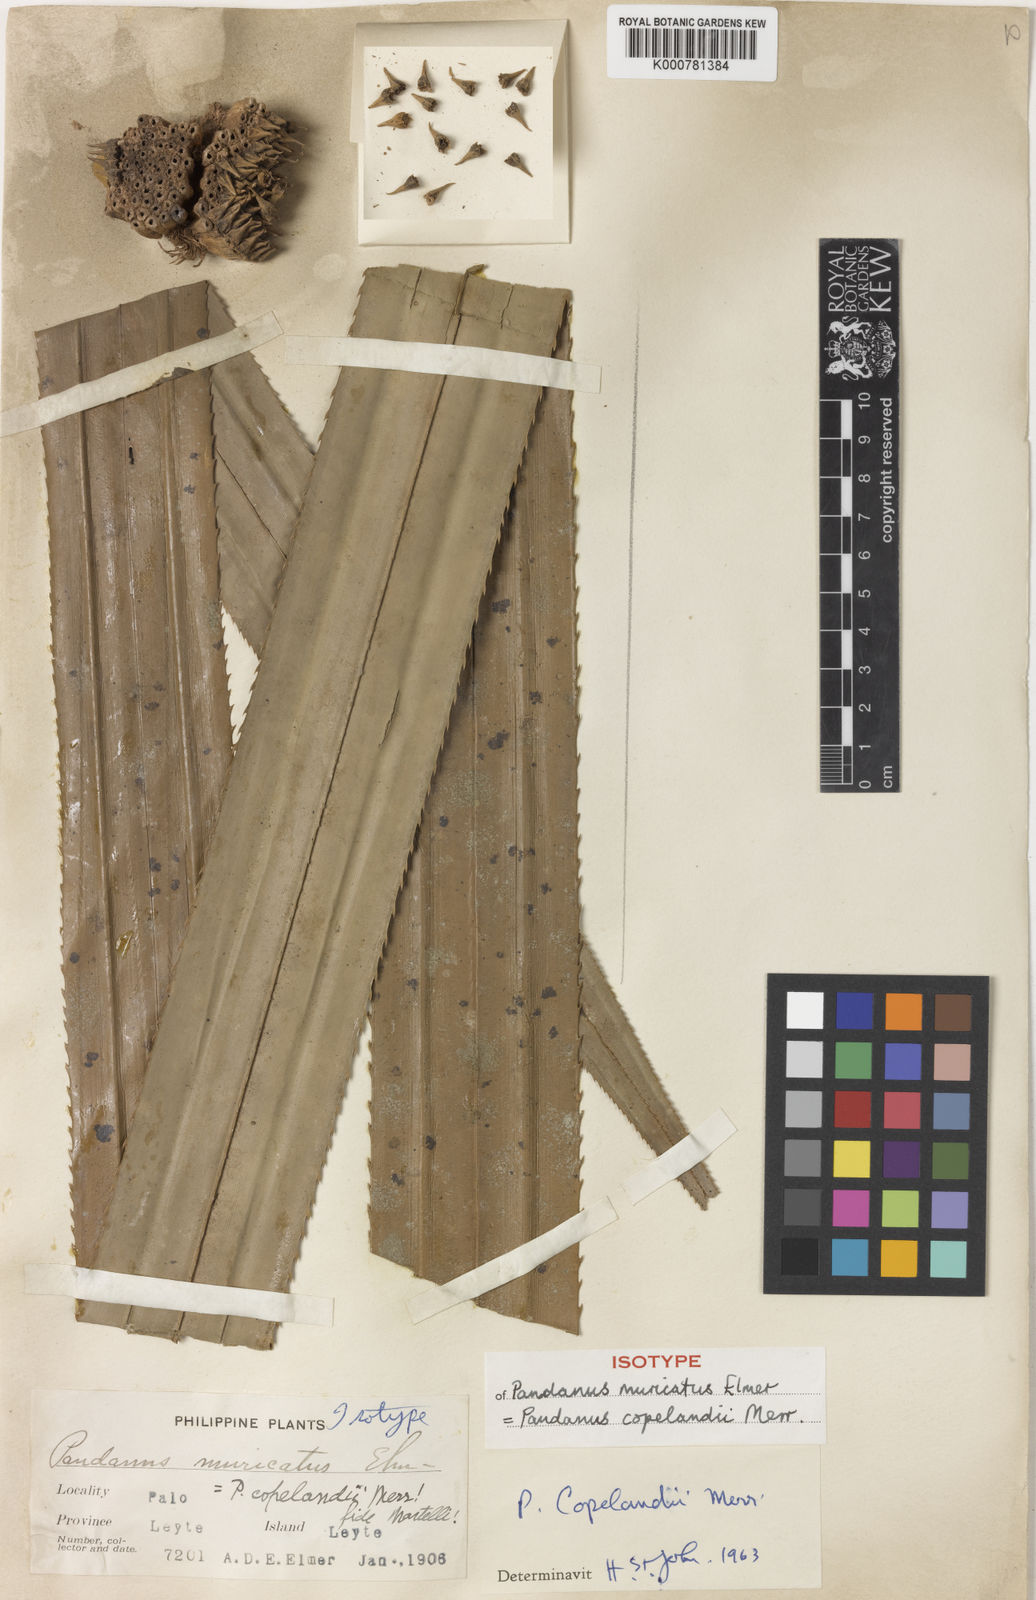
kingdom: Plantae
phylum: Tracheophyta
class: Liliopsida
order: Pandanales
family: Pandanaceae
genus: Benstonea
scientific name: Benstonea copelandii
